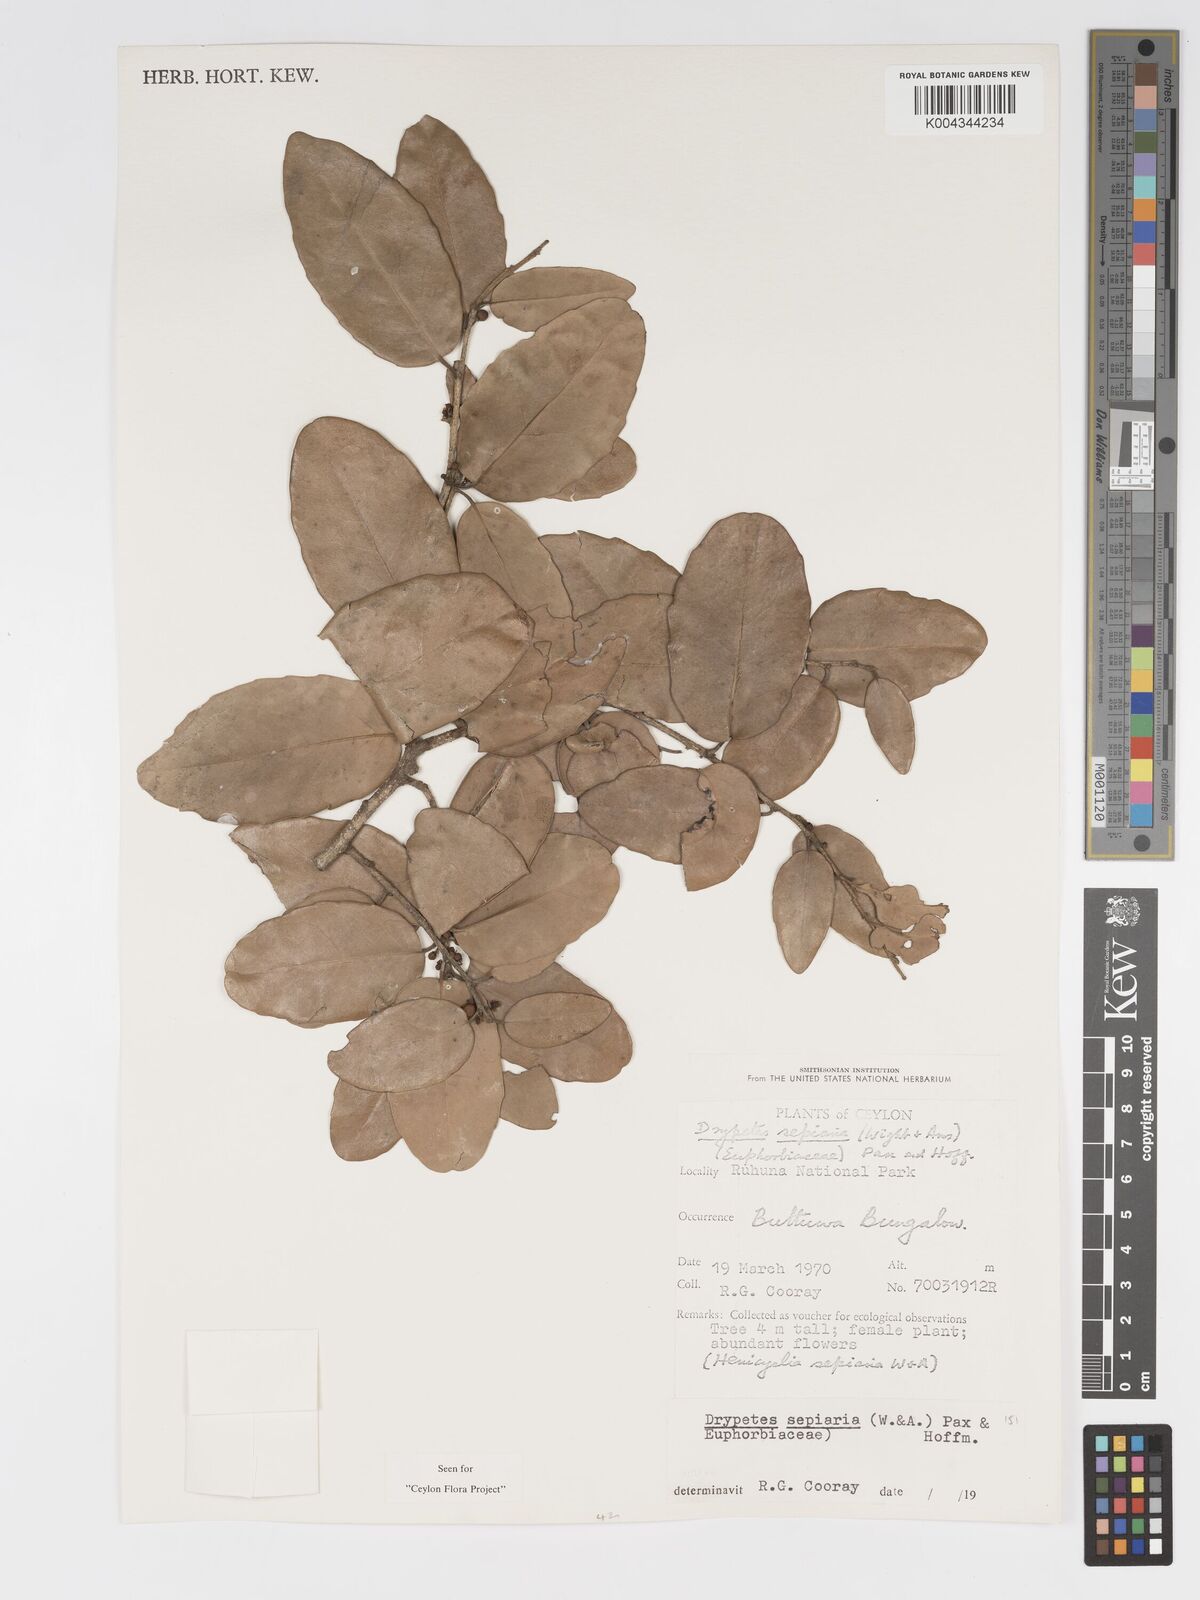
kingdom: Plantae
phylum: Tracheophyta
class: Magnoliopsida
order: Malpighiales
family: Putranjivaceae
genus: Drypetes
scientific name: Drypetes sepiaria
